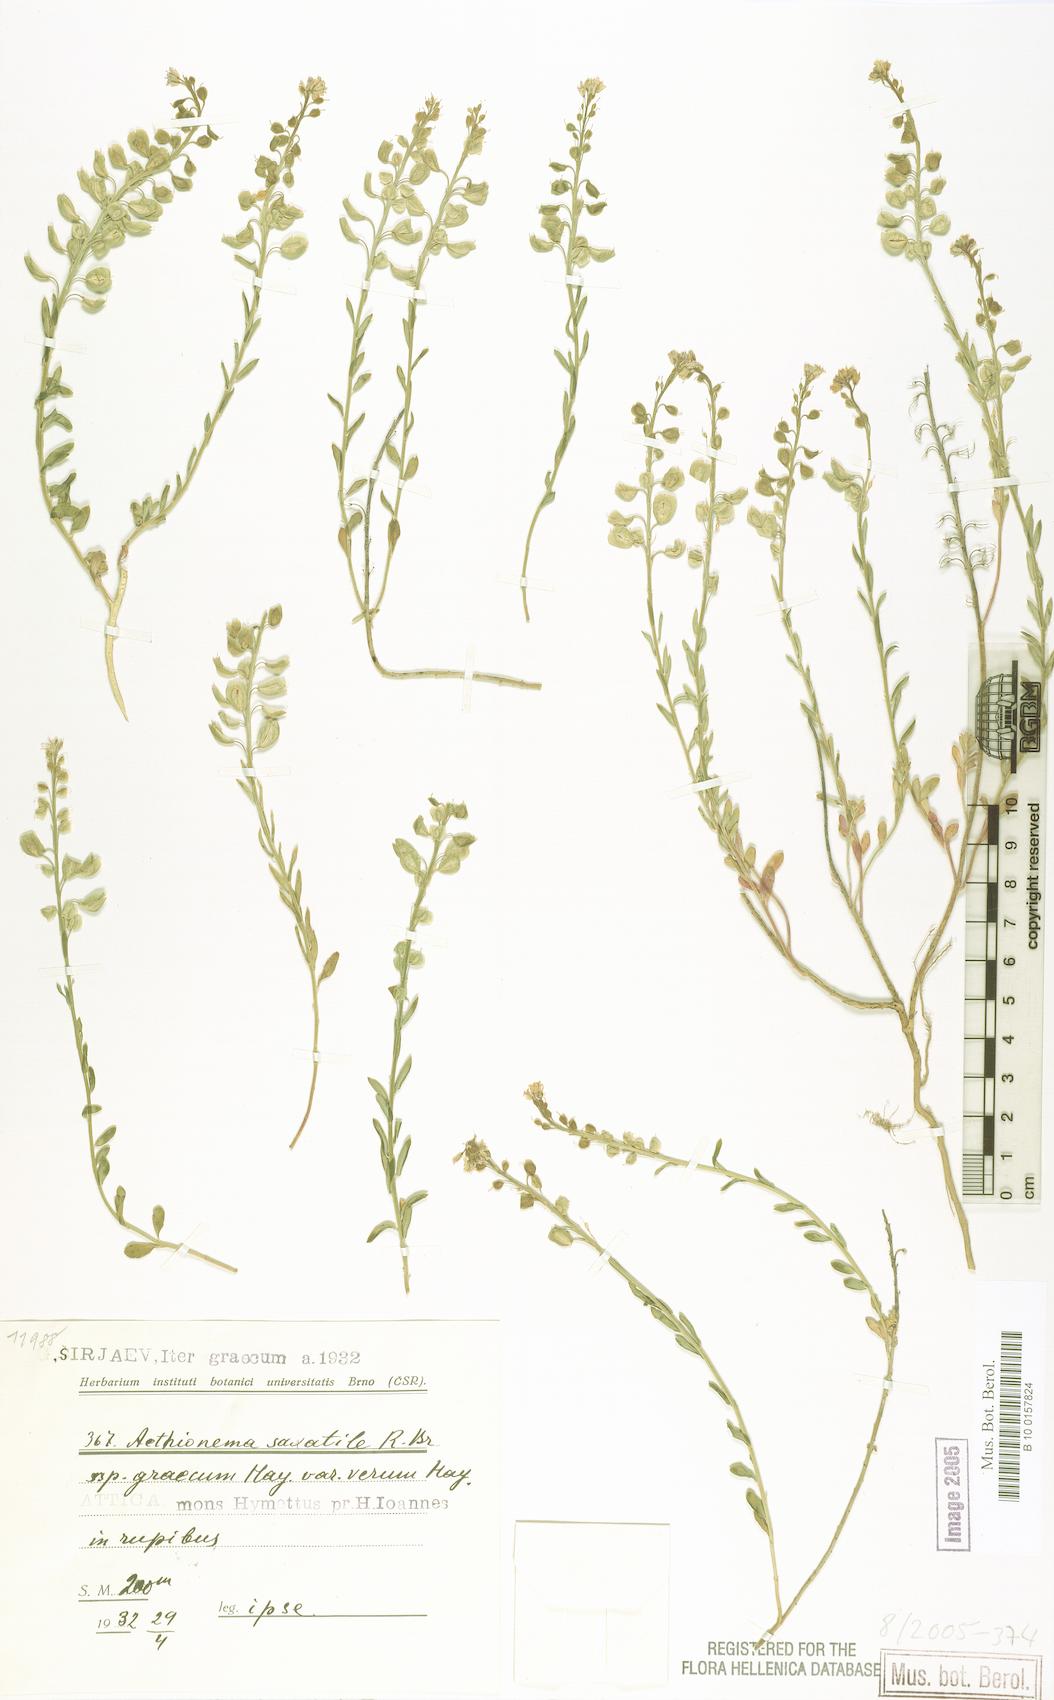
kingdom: Plantae
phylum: Tracheophyta
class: Magnoliopsida
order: Brassicales
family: Brassicaceae
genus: Aethionema
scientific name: Aethionema saxatile
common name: Burnt candytuft
